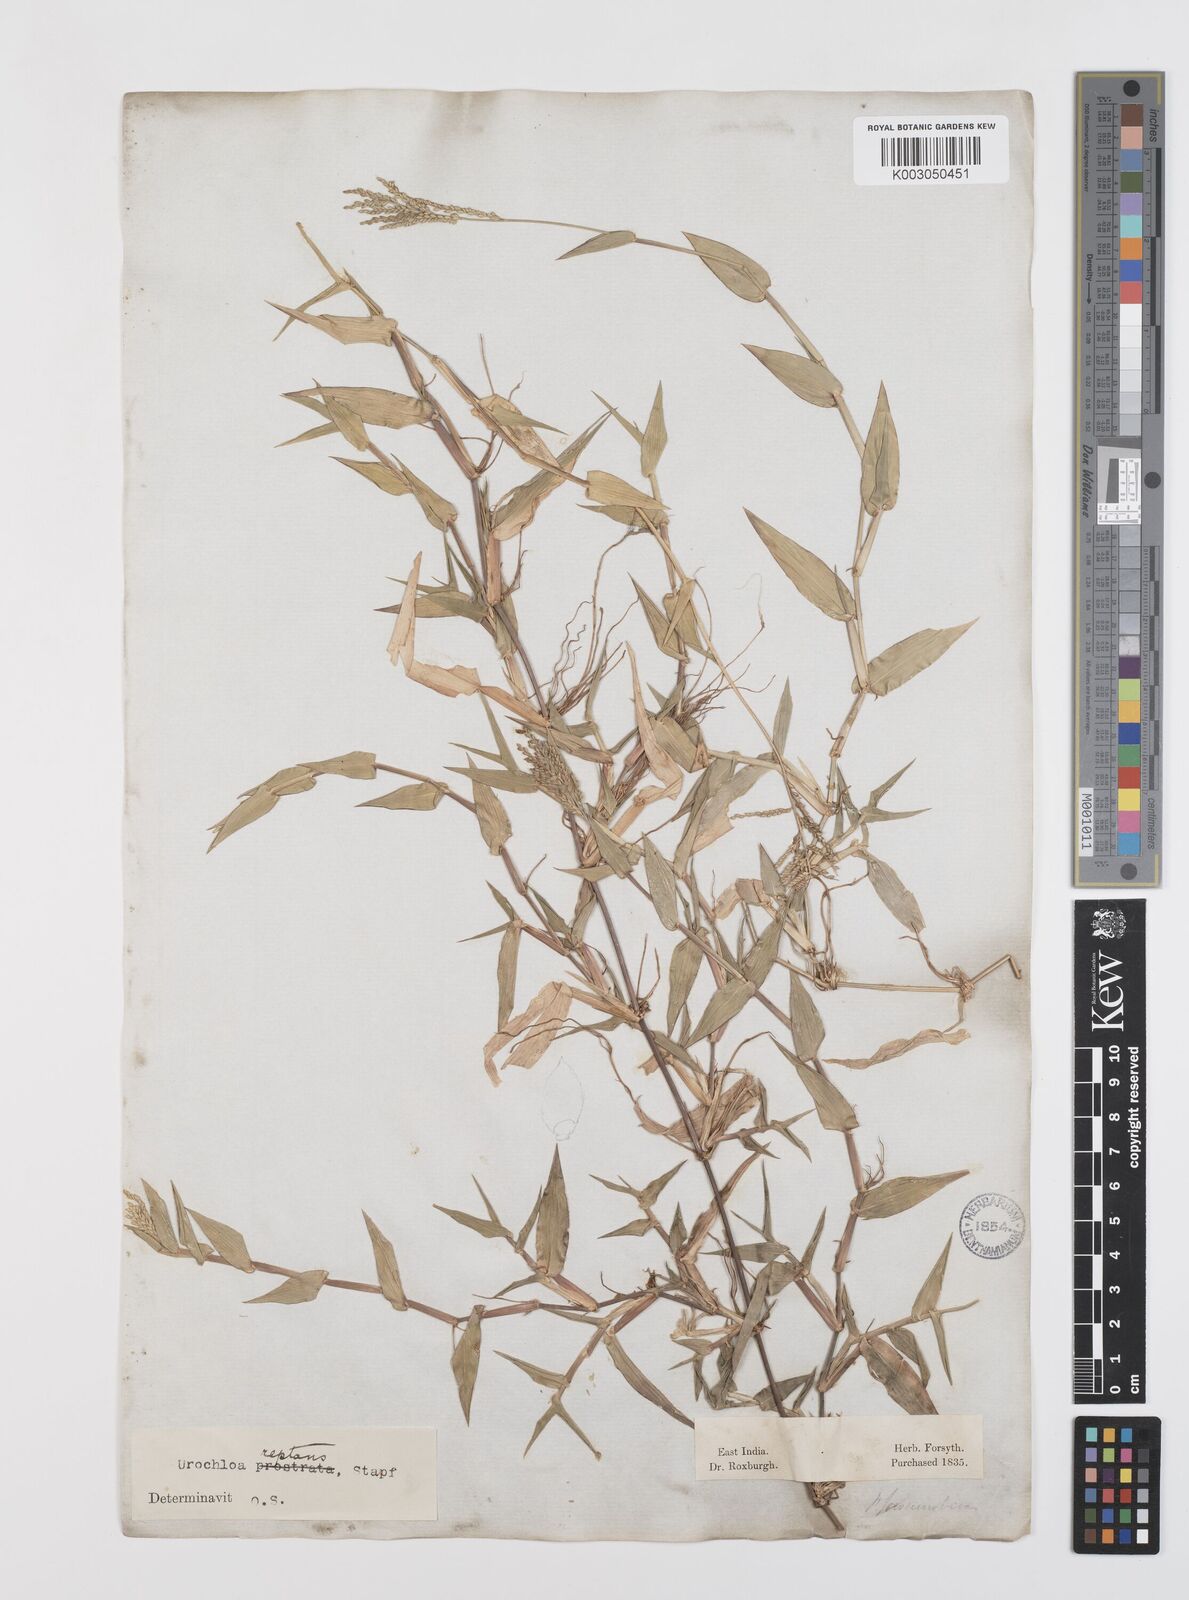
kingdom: Plantae
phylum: Tracheophyta
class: Liliopsida
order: Poales
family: Poaceae
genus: Urochloa
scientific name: Urochloa reptans
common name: Sprawling signalgrass
